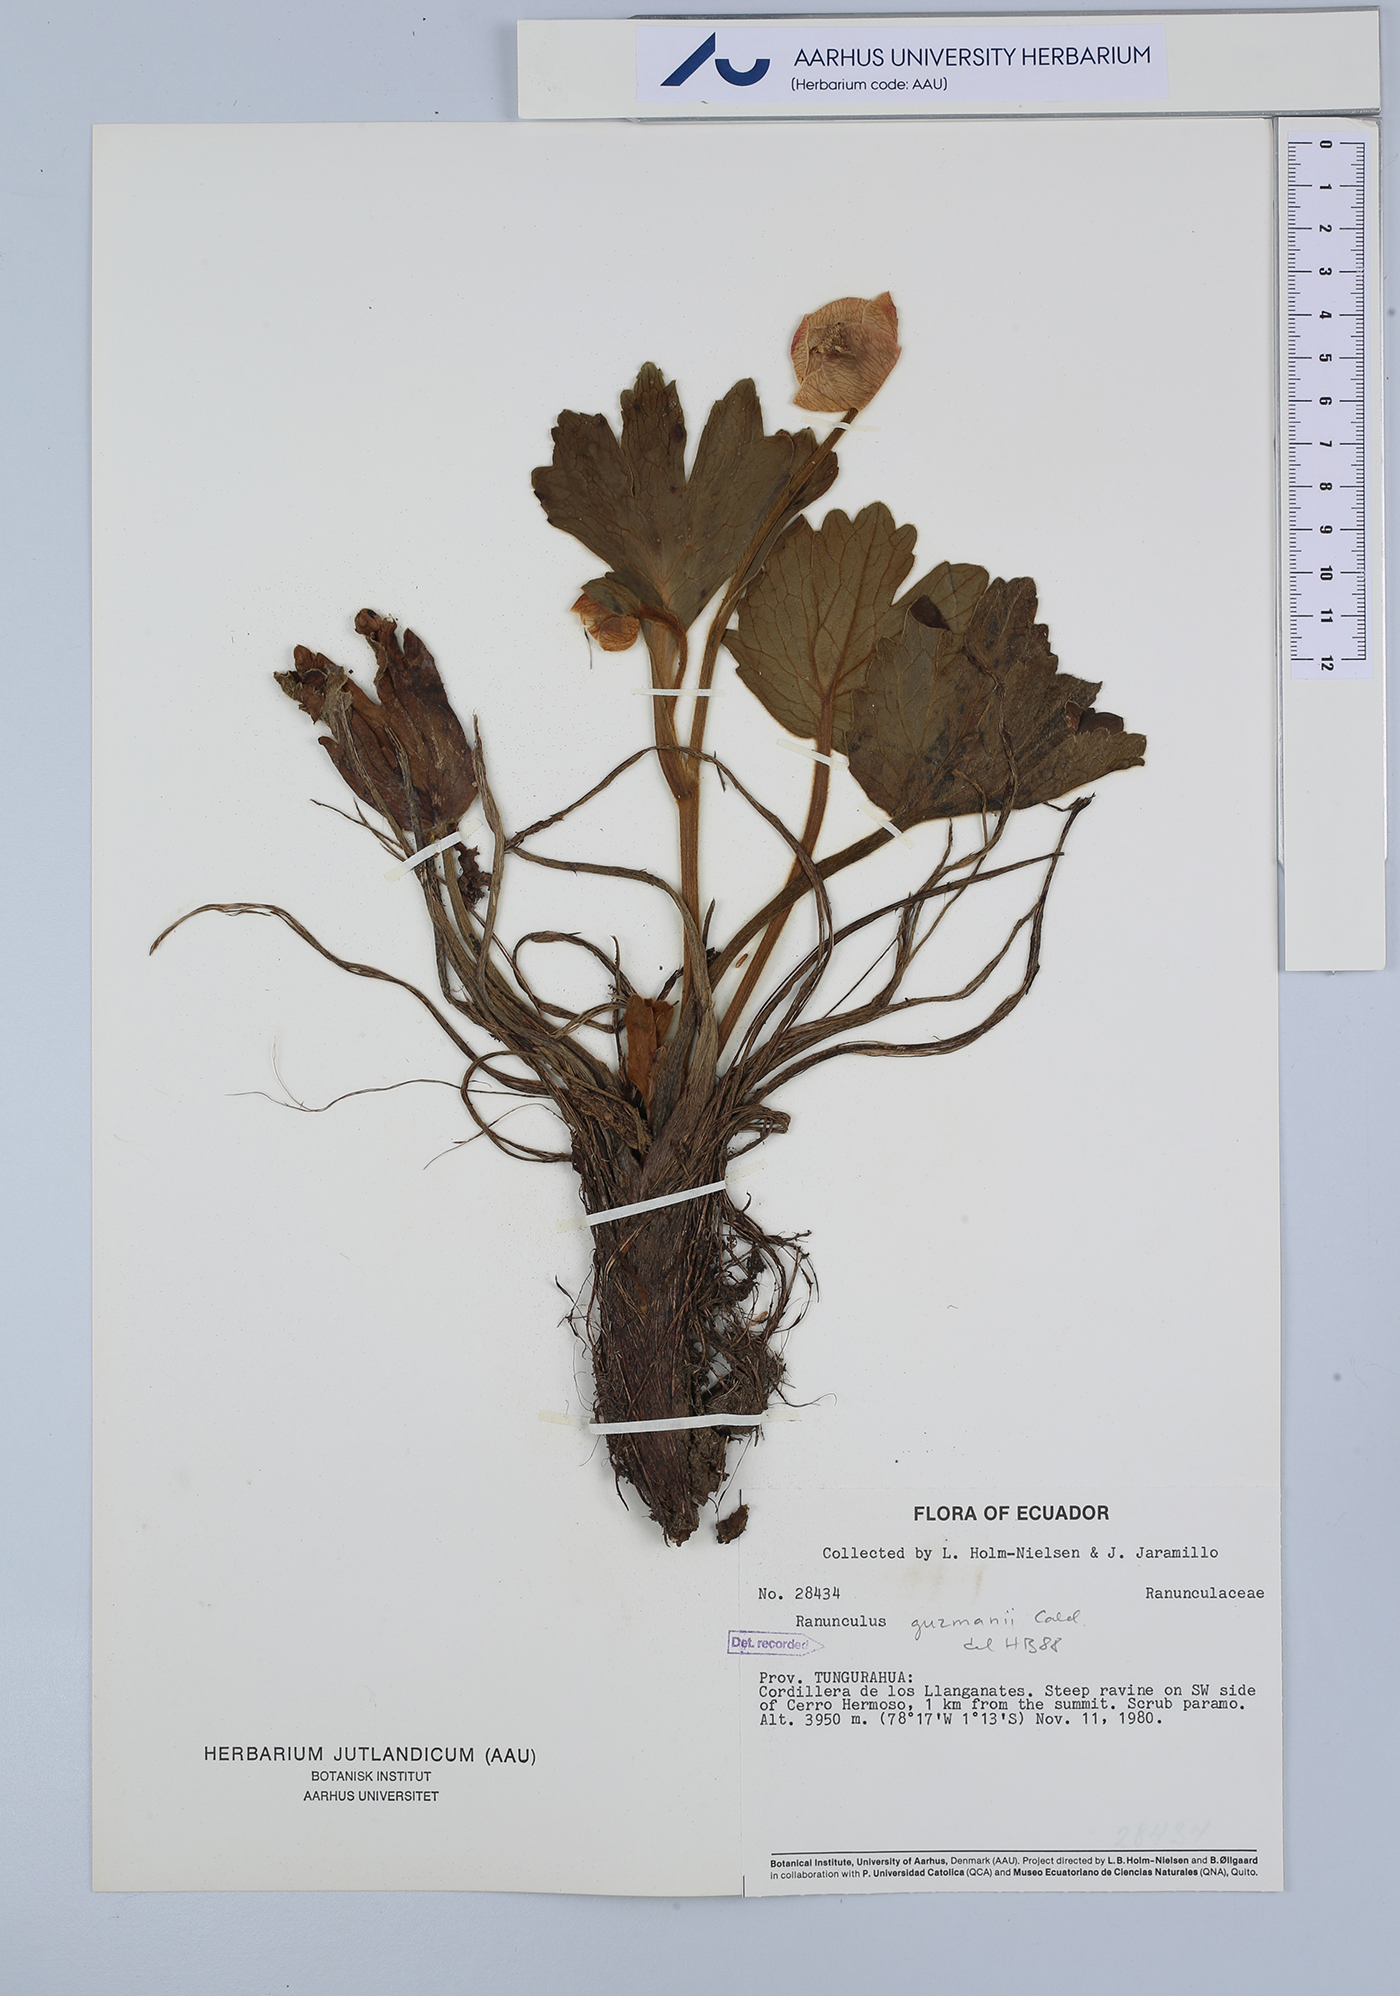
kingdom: Plantae
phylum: Tracheophyta
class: Magnoliopsida
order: Ranunculales
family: Ranunculaceae
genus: Krapfia
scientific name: Krapfia ranunculina
